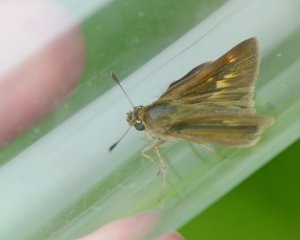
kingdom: Animalia
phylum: Arthropoda
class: Insecta
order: Lepidoptera
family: Hesperiidae
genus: Polites
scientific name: Polites egeremet
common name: Northern Broken-Dash
